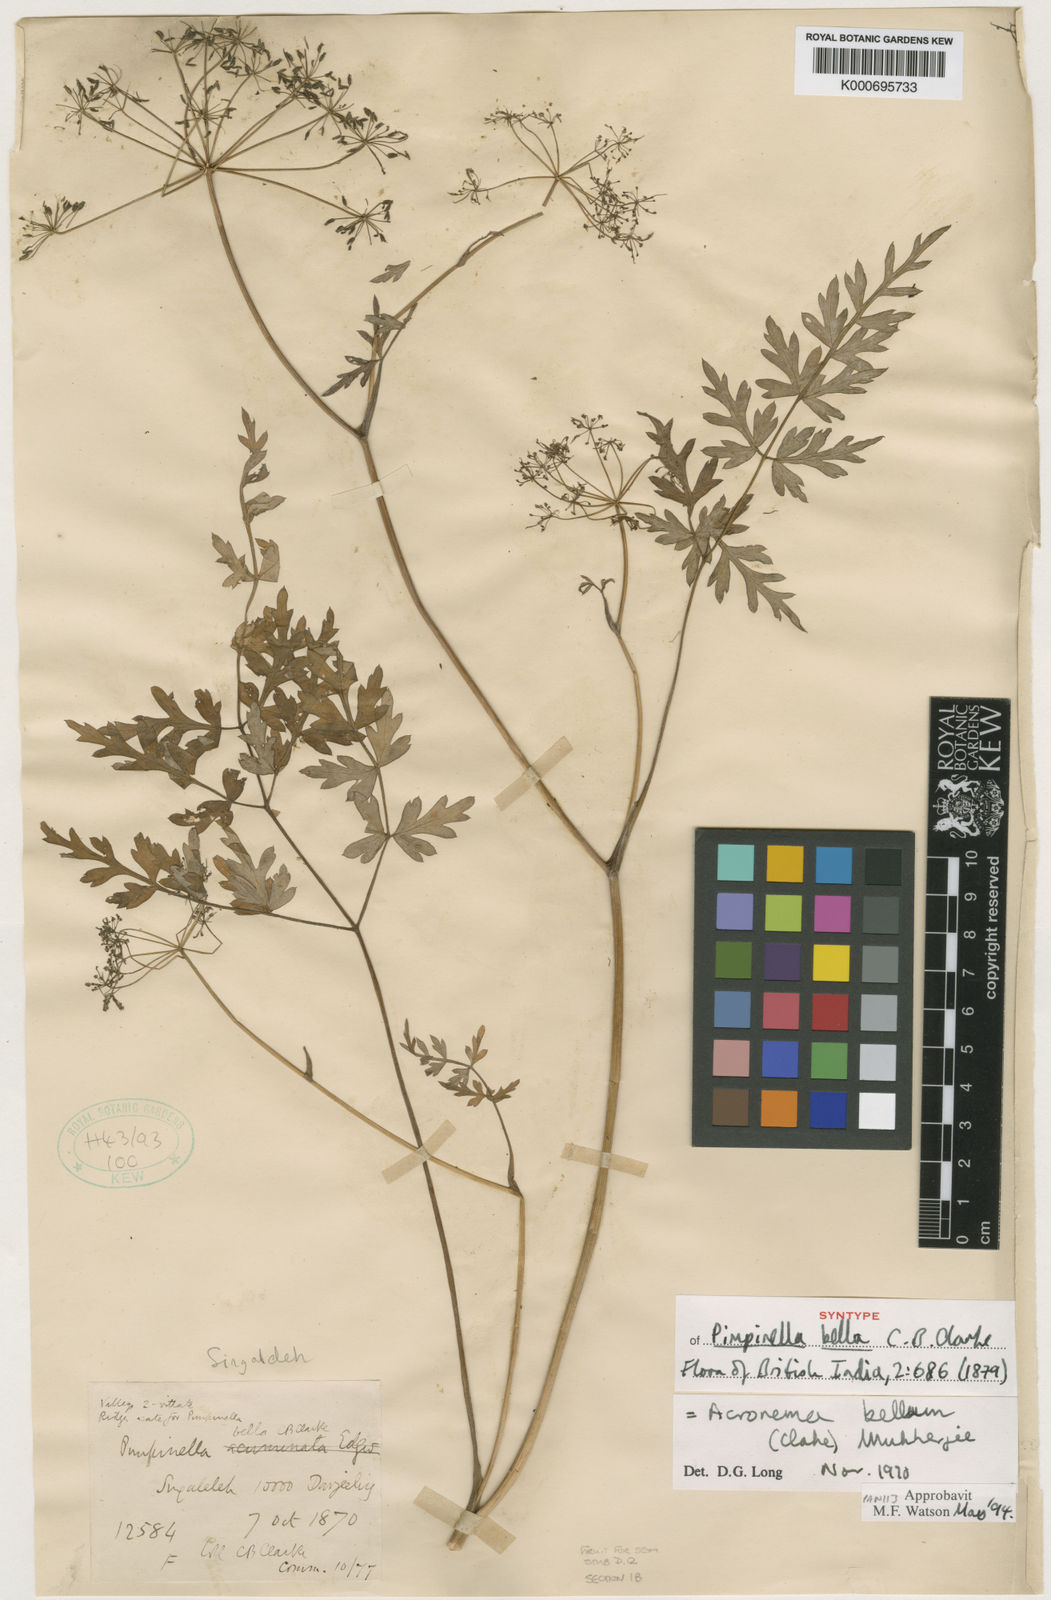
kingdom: Plantae
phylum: Tracheophyta
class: Magnoliopsida
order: Apiales
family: Apiaceae
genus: Sinocarum
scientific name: Sinocarum bellum
